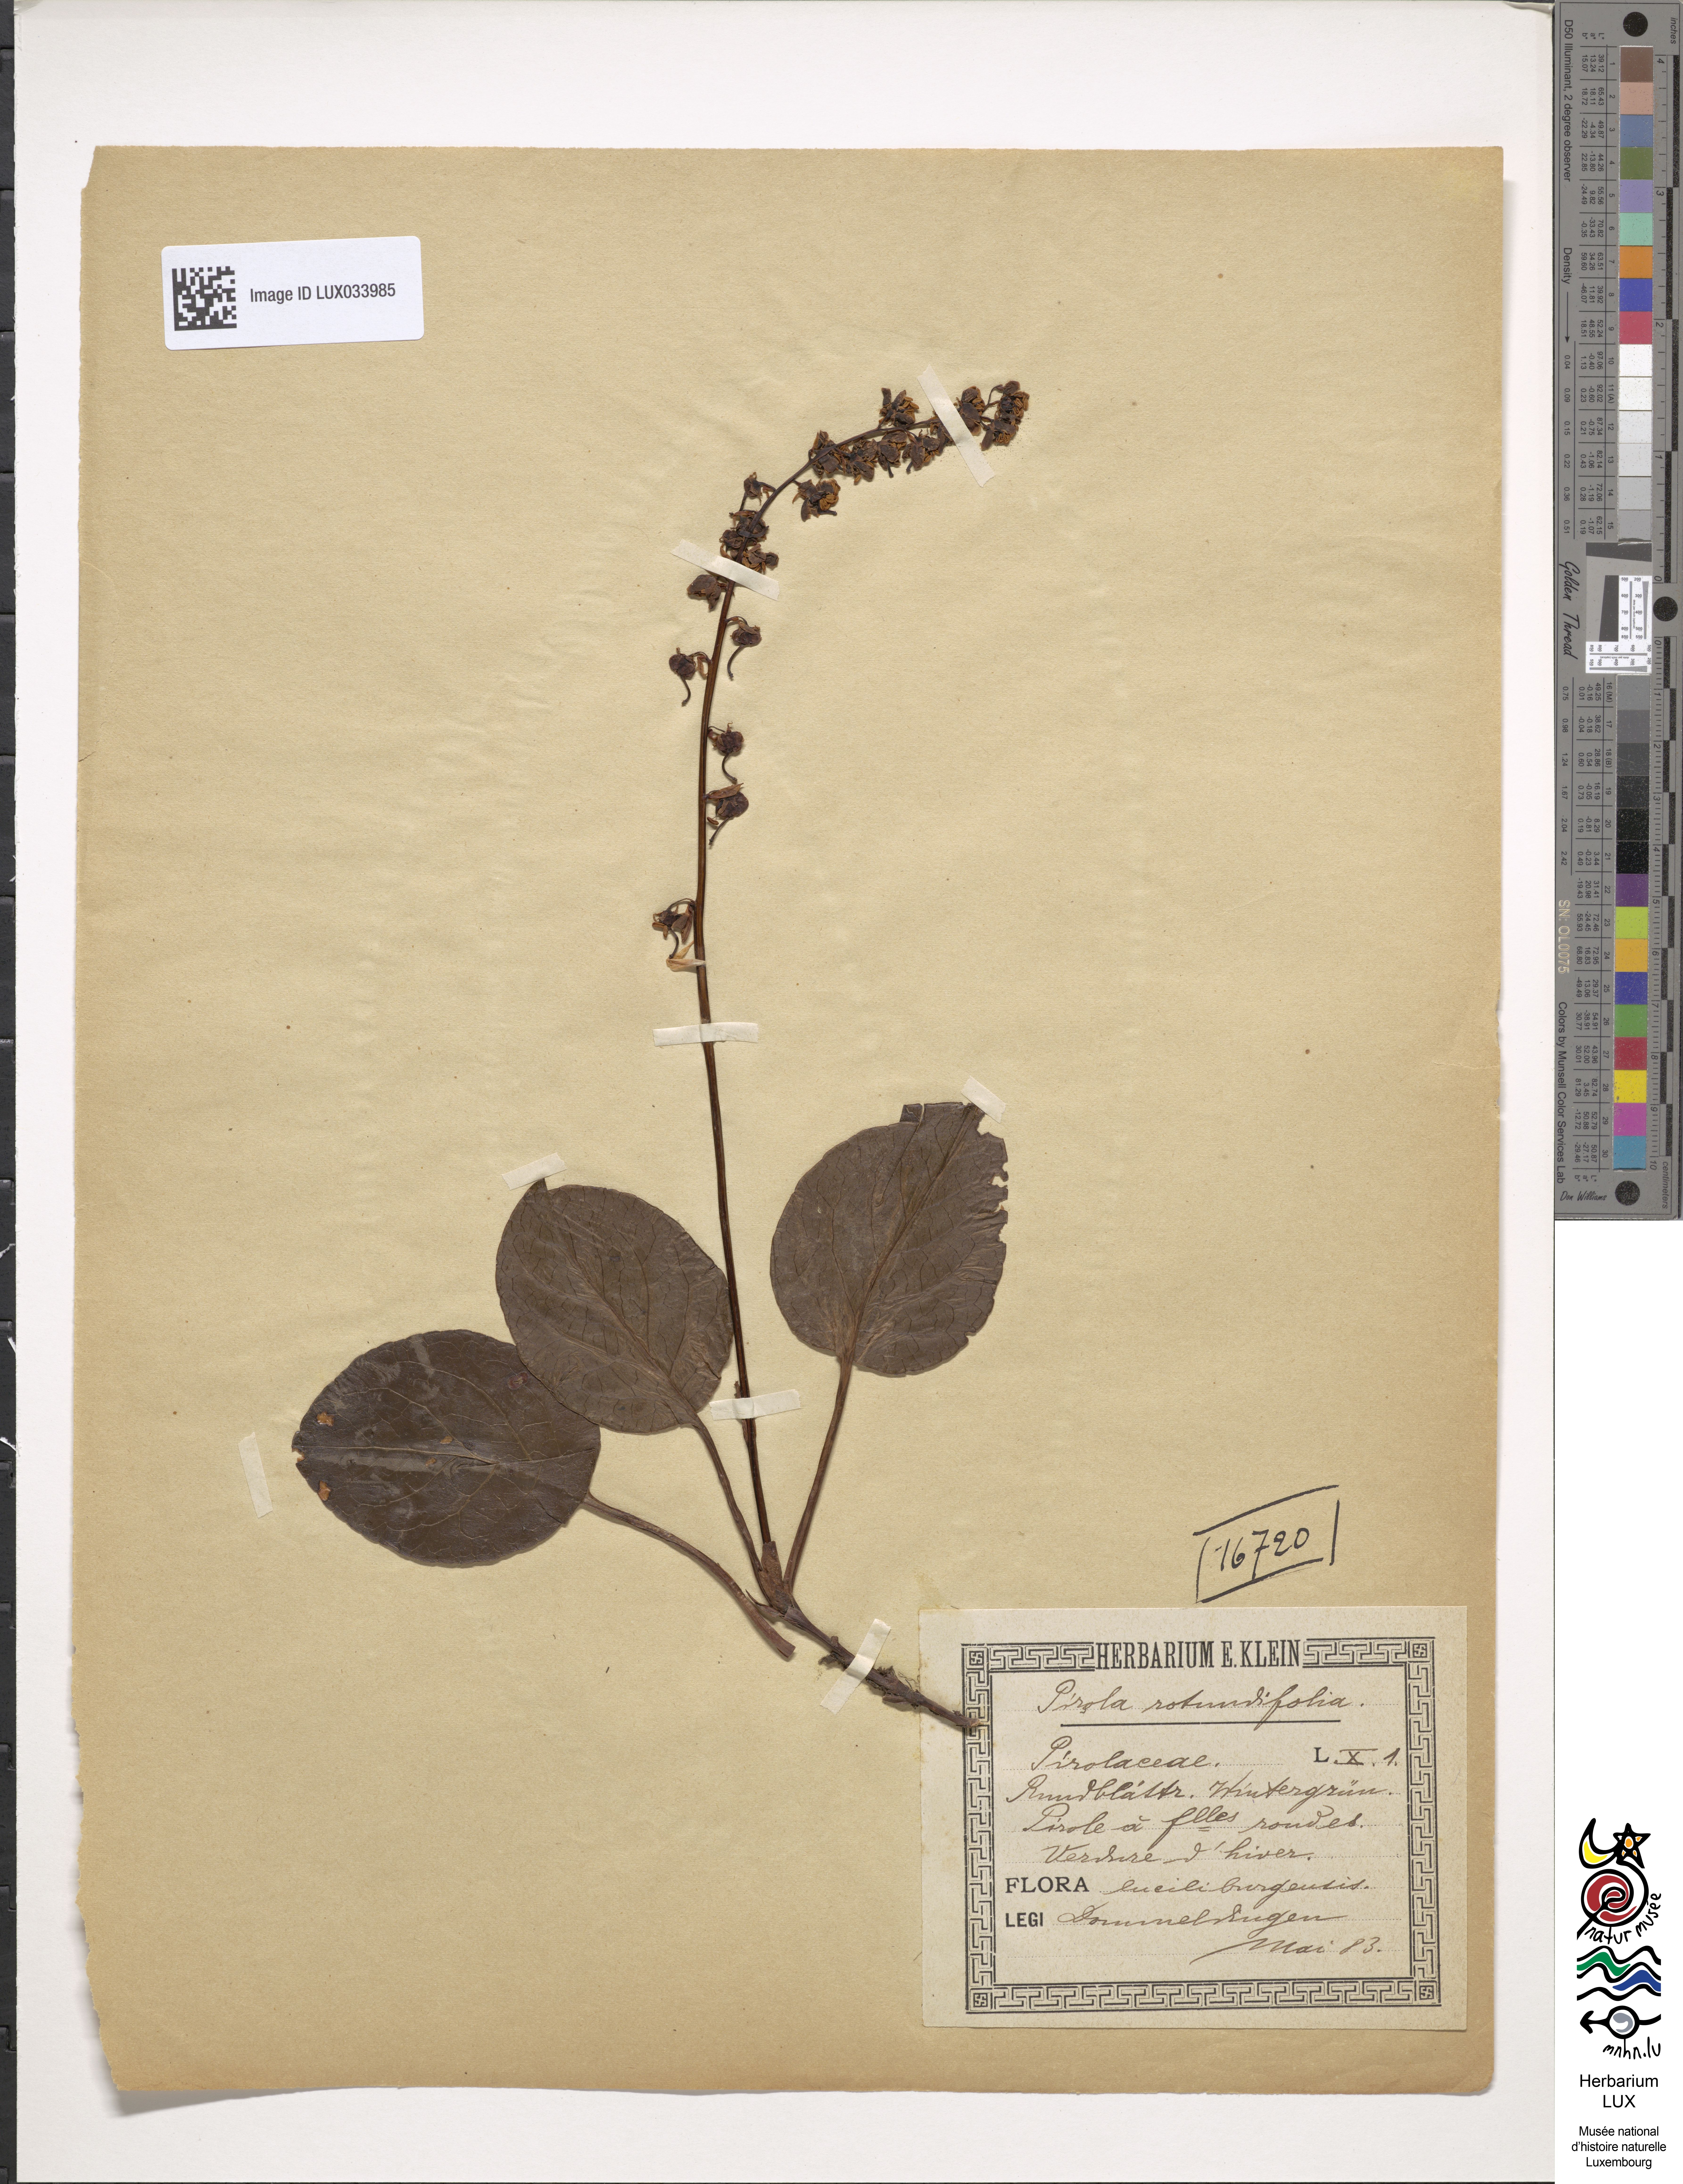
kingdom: Plantae
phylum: Tracheophyta
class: Magnoliopsida
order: Ericales
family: Ericaceae
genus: Pyrola
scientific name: Pyrola rotundifolia
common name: Round-leaved wintergreen
